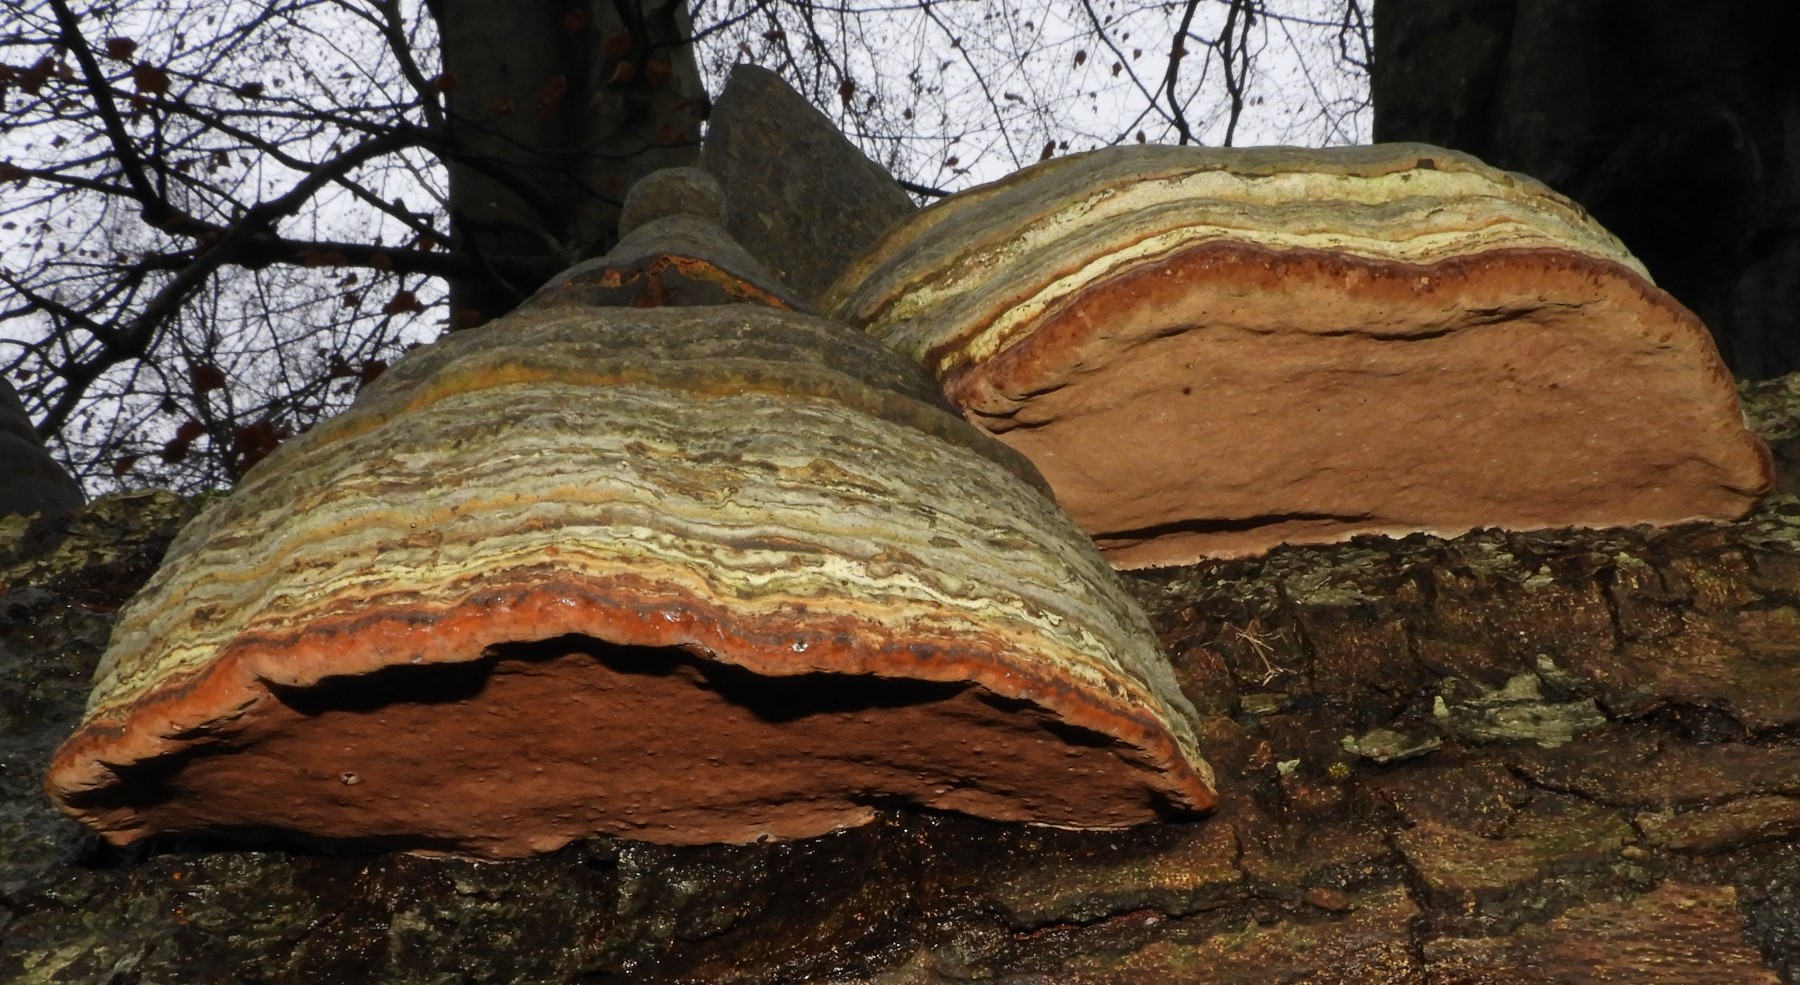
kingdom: Fungi
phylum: Basidiomycota
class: Agaricomycetes
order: Polyporales
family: Polyporaceae
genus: Fomes
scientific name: Fomes fomentarius
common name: tøndersvamp
